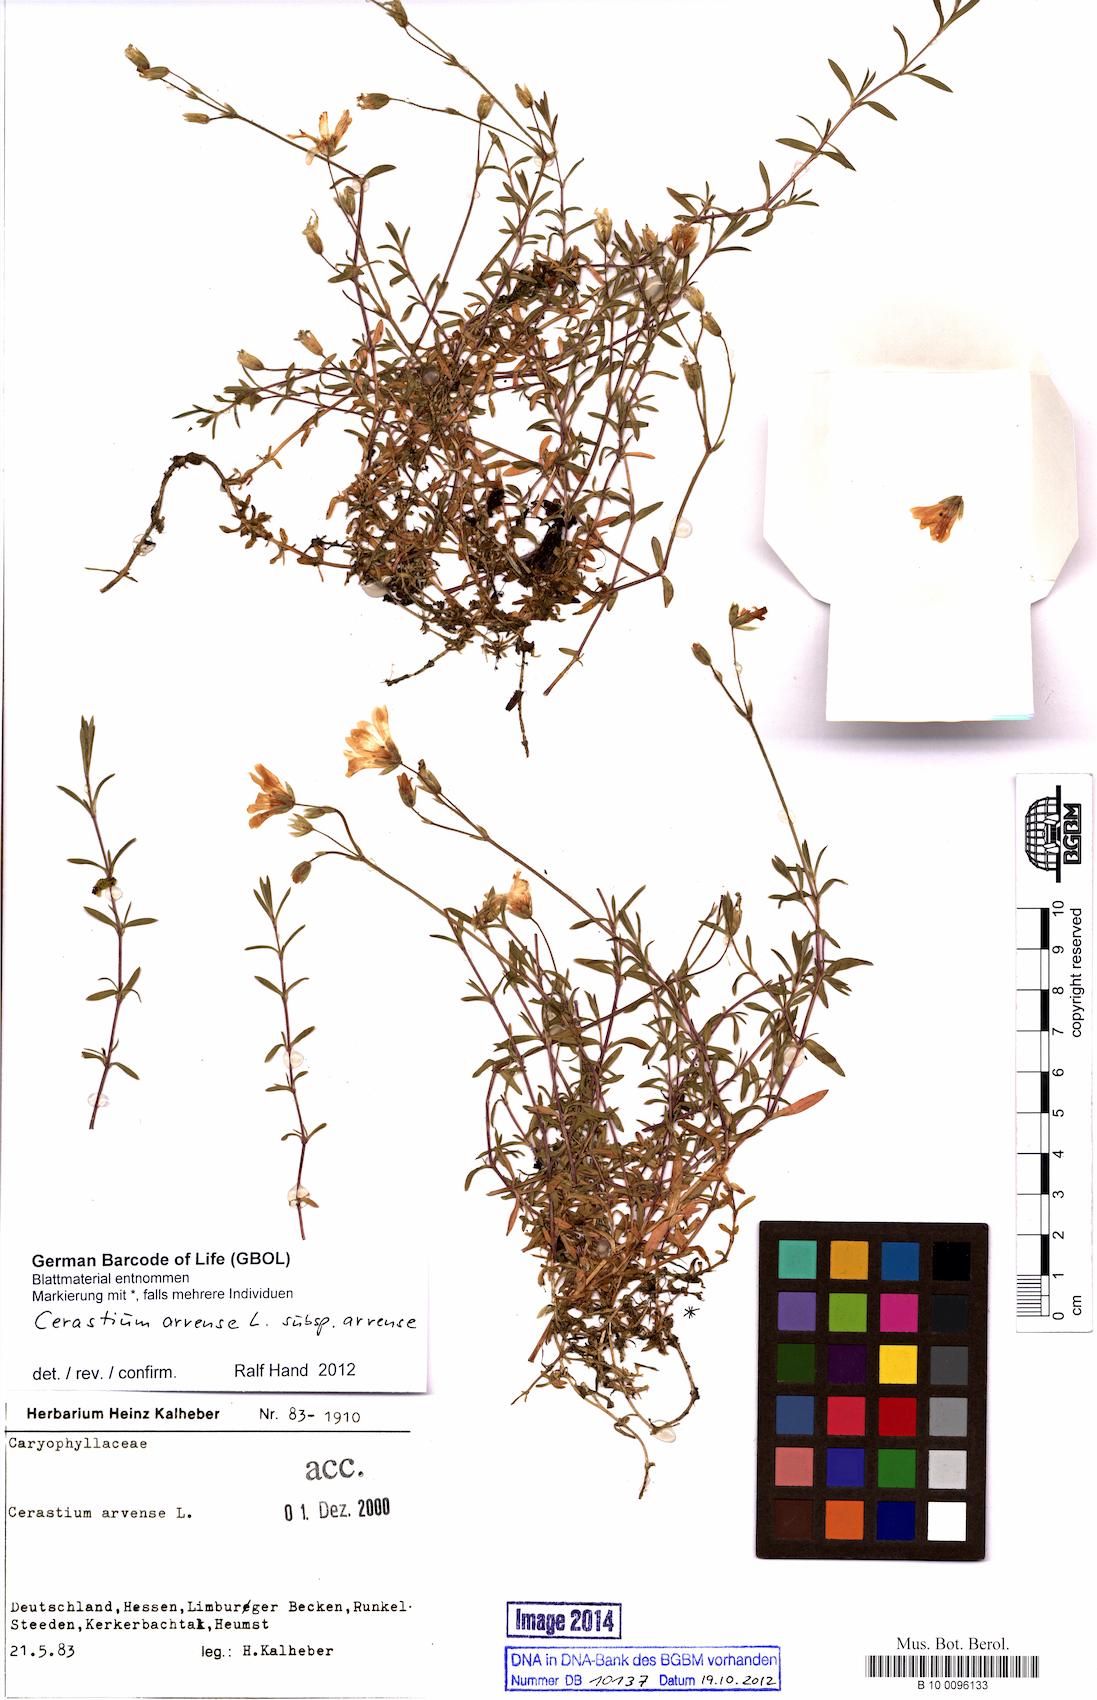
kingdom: Plantae
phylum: Tracheophyta
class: Magnoliopsida
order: Caryophyllales
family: Caryophyllaceae
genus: Cerastium
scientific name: Cerastium arvense
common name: Field mouse-ear
